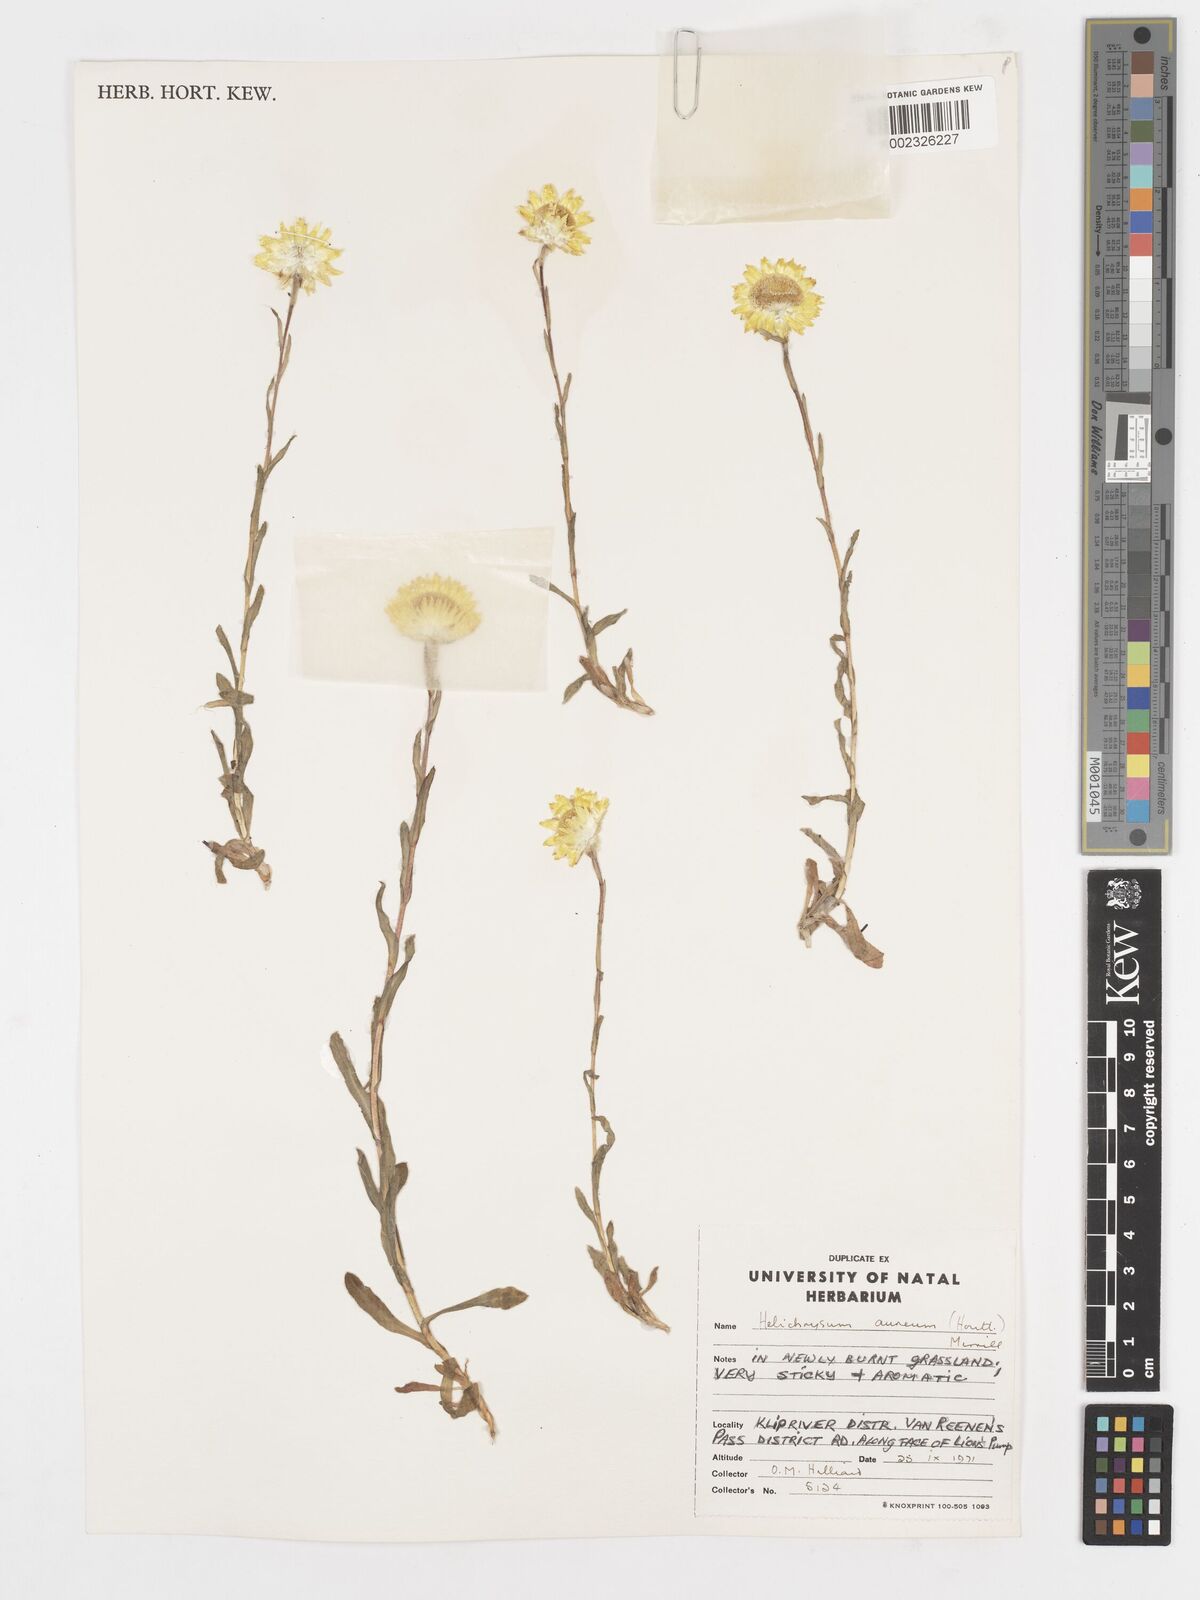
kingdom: Plantae
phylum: Tracheophyta
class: Magnoliopsida
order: Asterales
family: Asteraceae
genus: Helichrysum
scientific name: Helichrysum aureum
